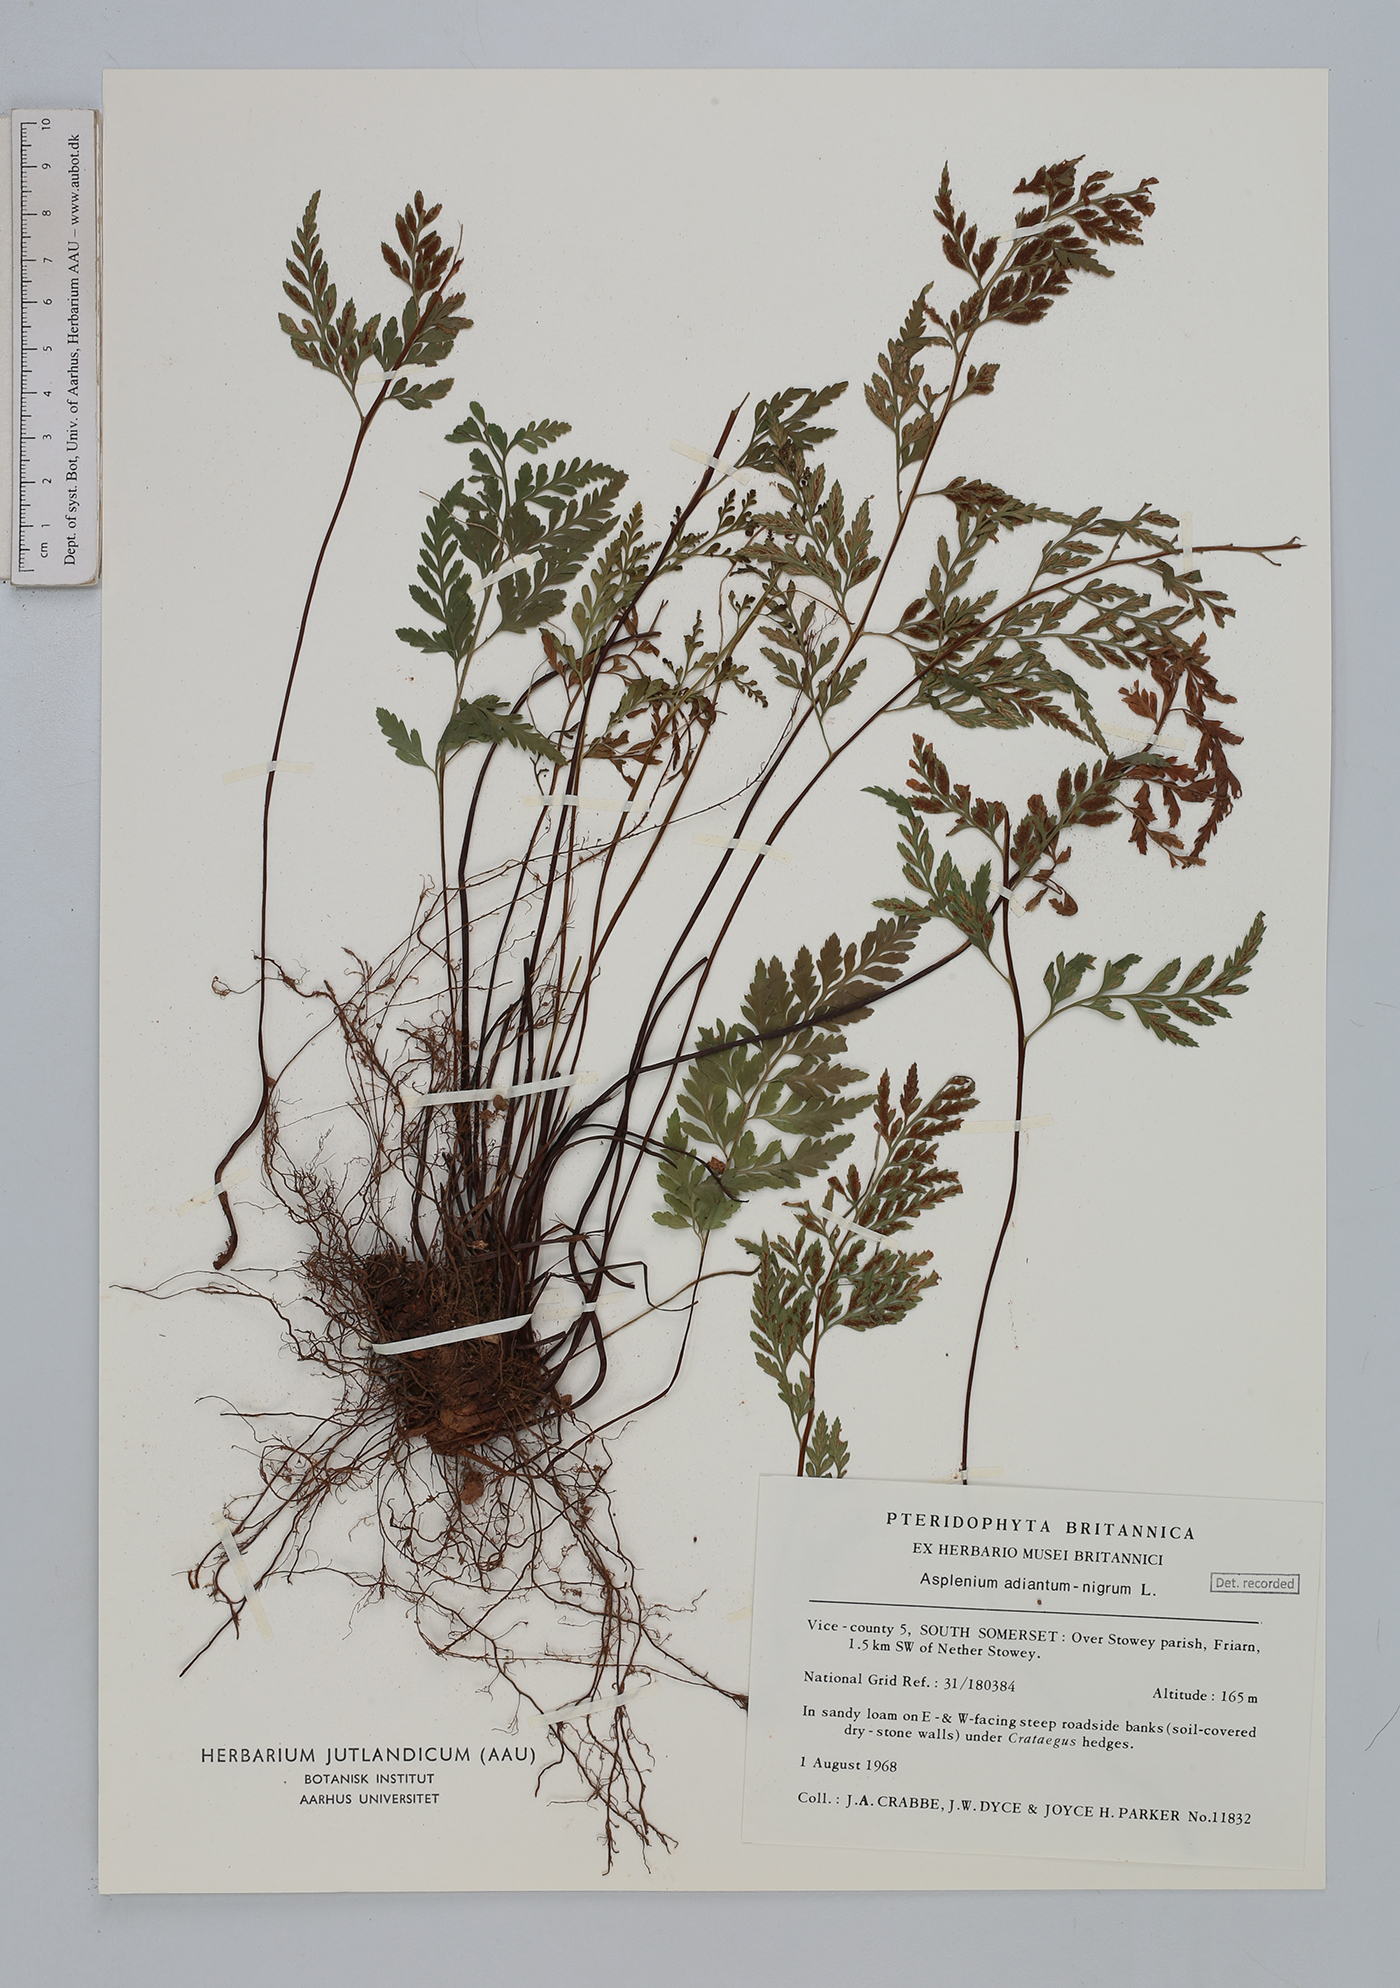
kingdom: Plantae
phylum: Tracheophyta
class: Polypodiopsida
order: Polypodiales
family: Aspleniaceae
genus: Asplenium
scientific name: Asplenium adiantum-nigrum
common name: Black spleenwort
